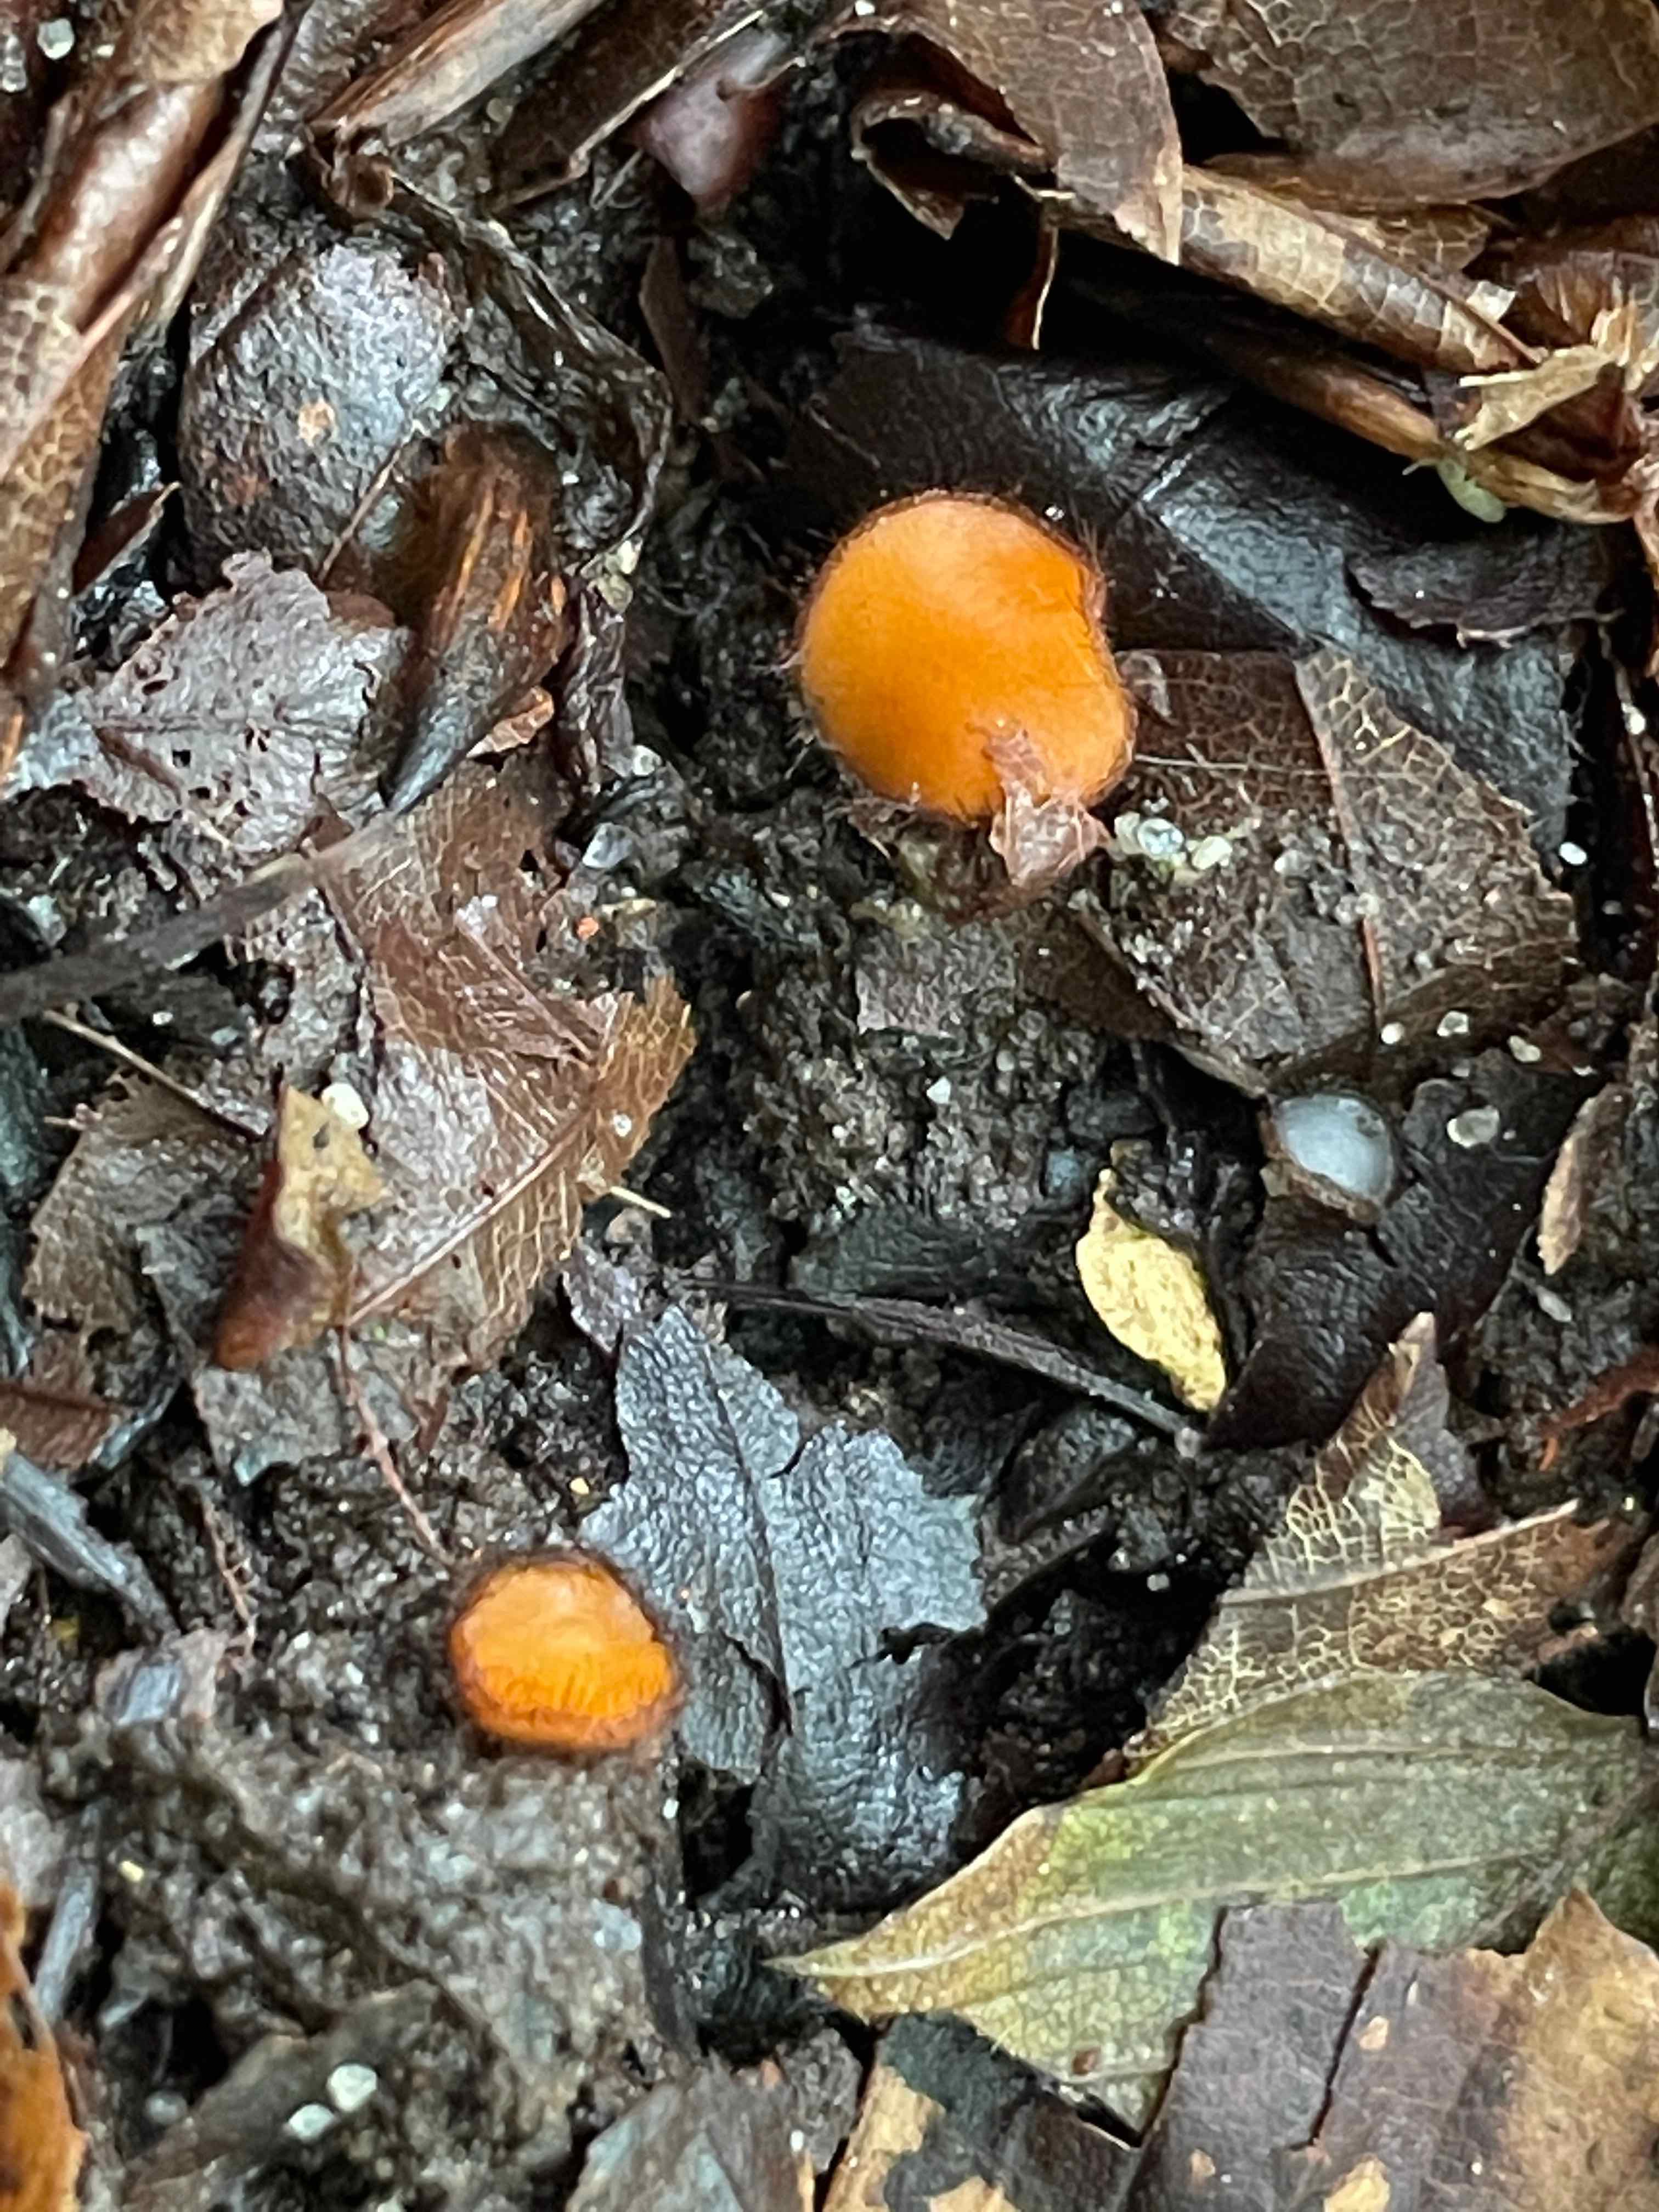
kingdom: Fungi
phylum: Ascomycota
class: Pezizomycetes
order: Pezizales
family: Pyronemataceae
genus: Scutellinia
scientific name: Scutellinia
